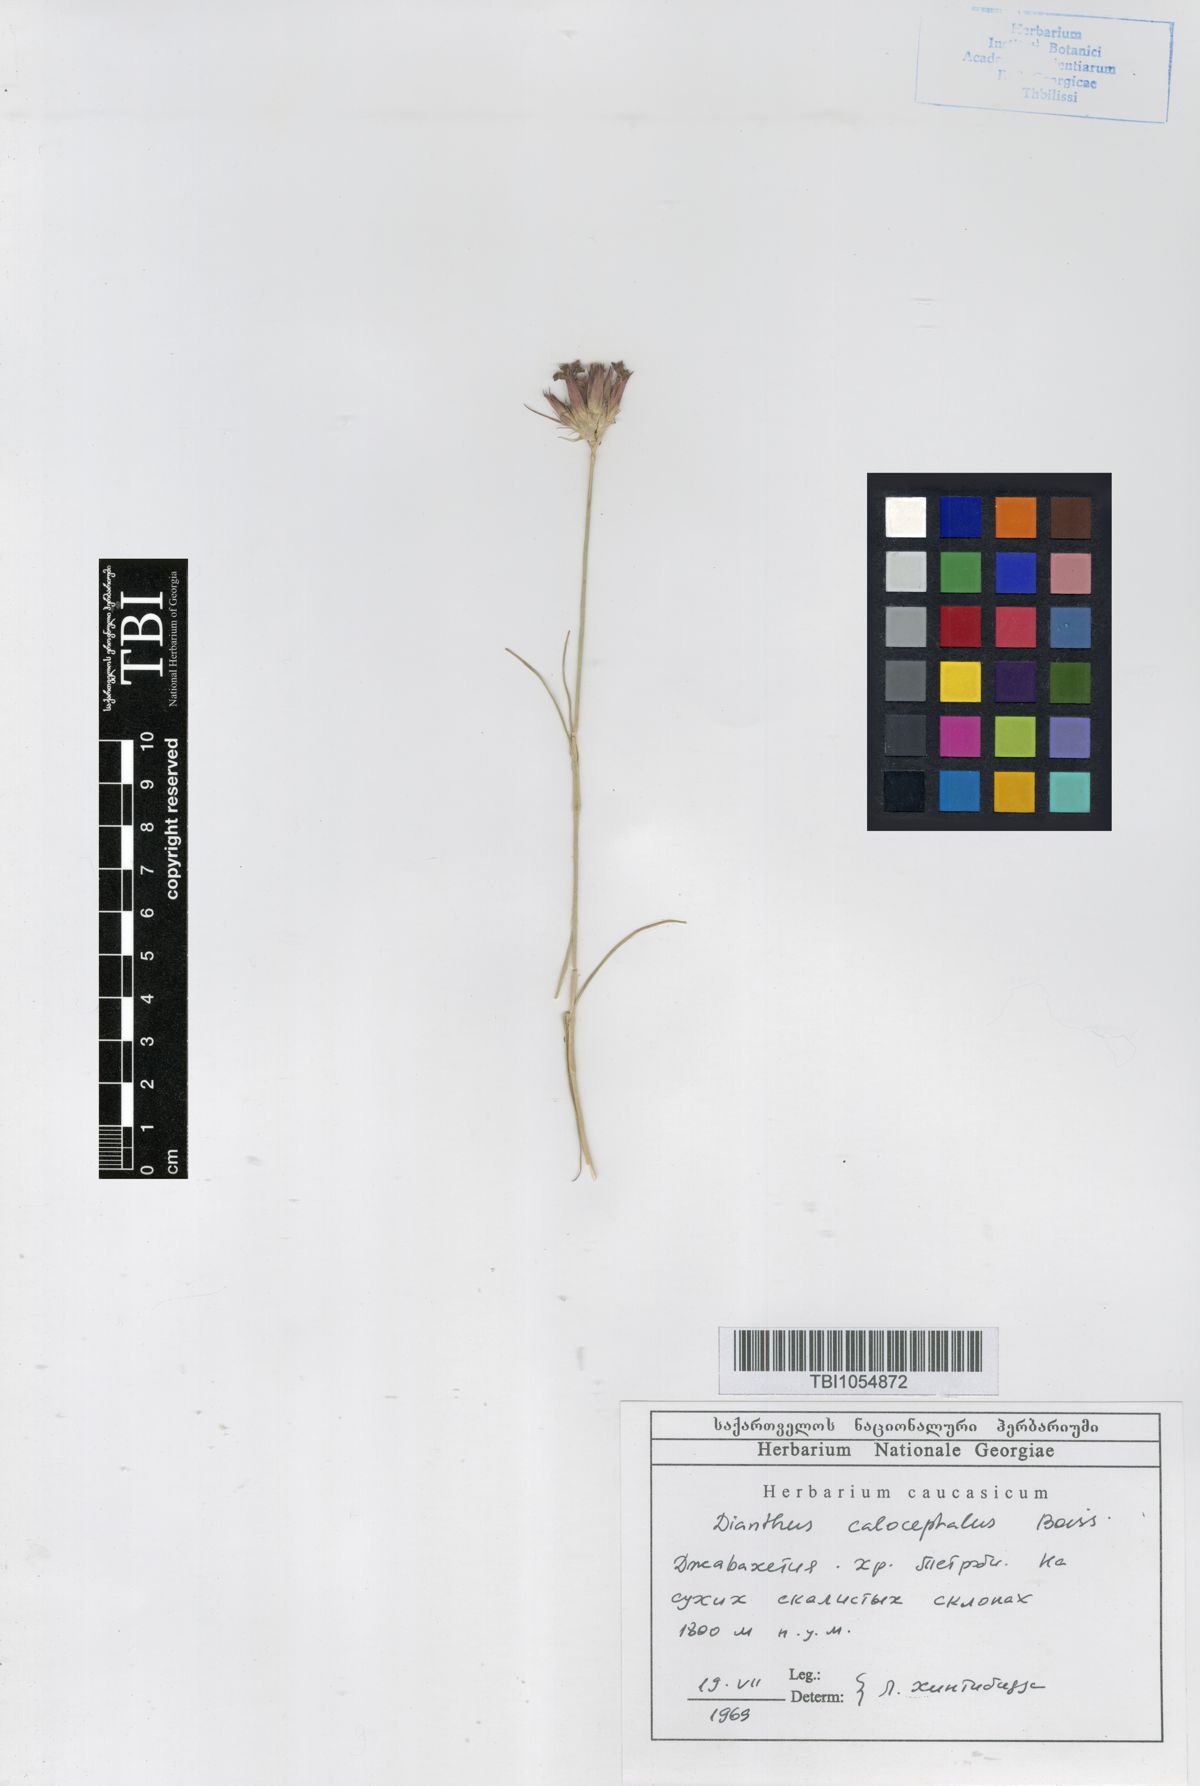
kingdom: Plantae
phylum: Tracheophyta
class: Magnoliopsida
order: Caryophyllales
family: Caryophyllaceae
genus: Dianthus
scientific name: Dianthus cruentus
